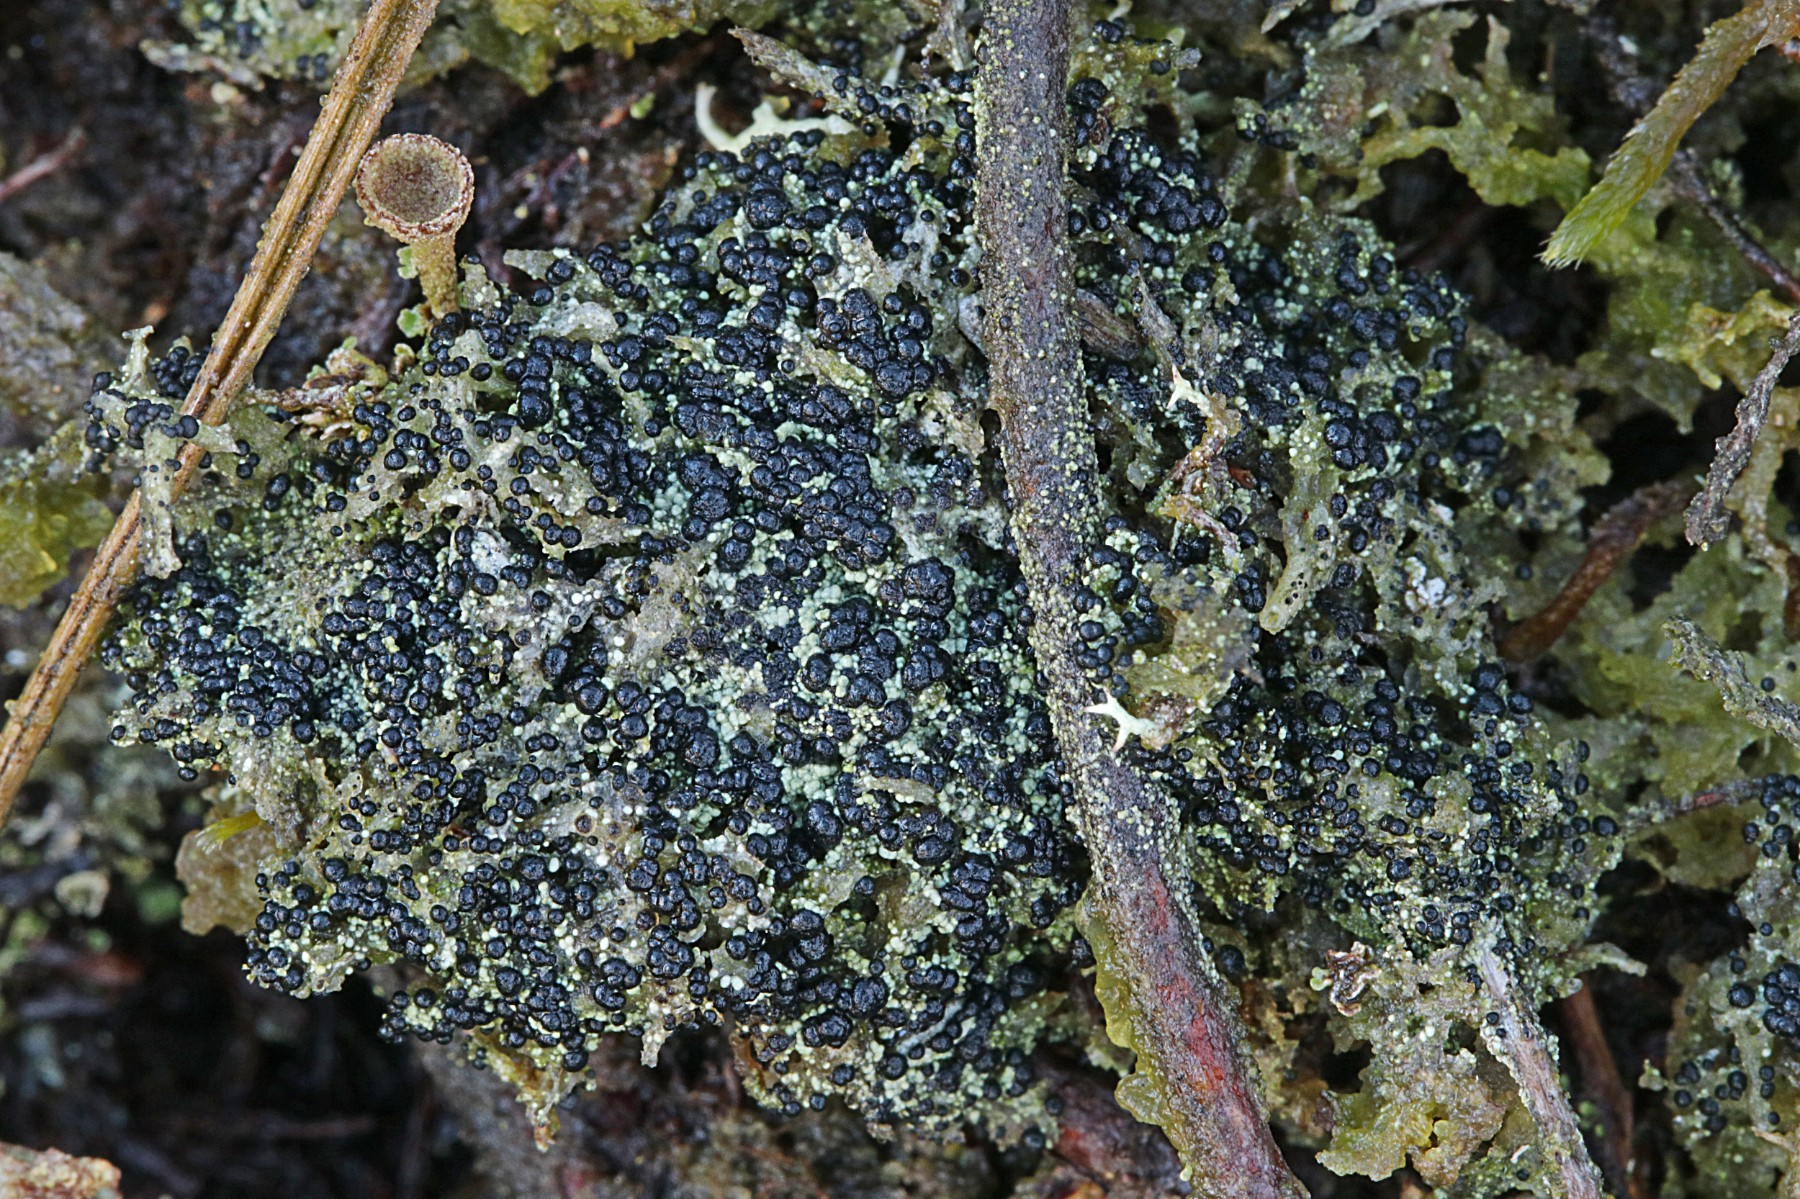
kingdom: Fungi
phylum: Ascomycota
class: Lecanoromycetes
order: Lecanorales
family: Byssolomataceae
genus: Micarea
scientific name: Micarea lignaria
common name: tørve-knaplav
